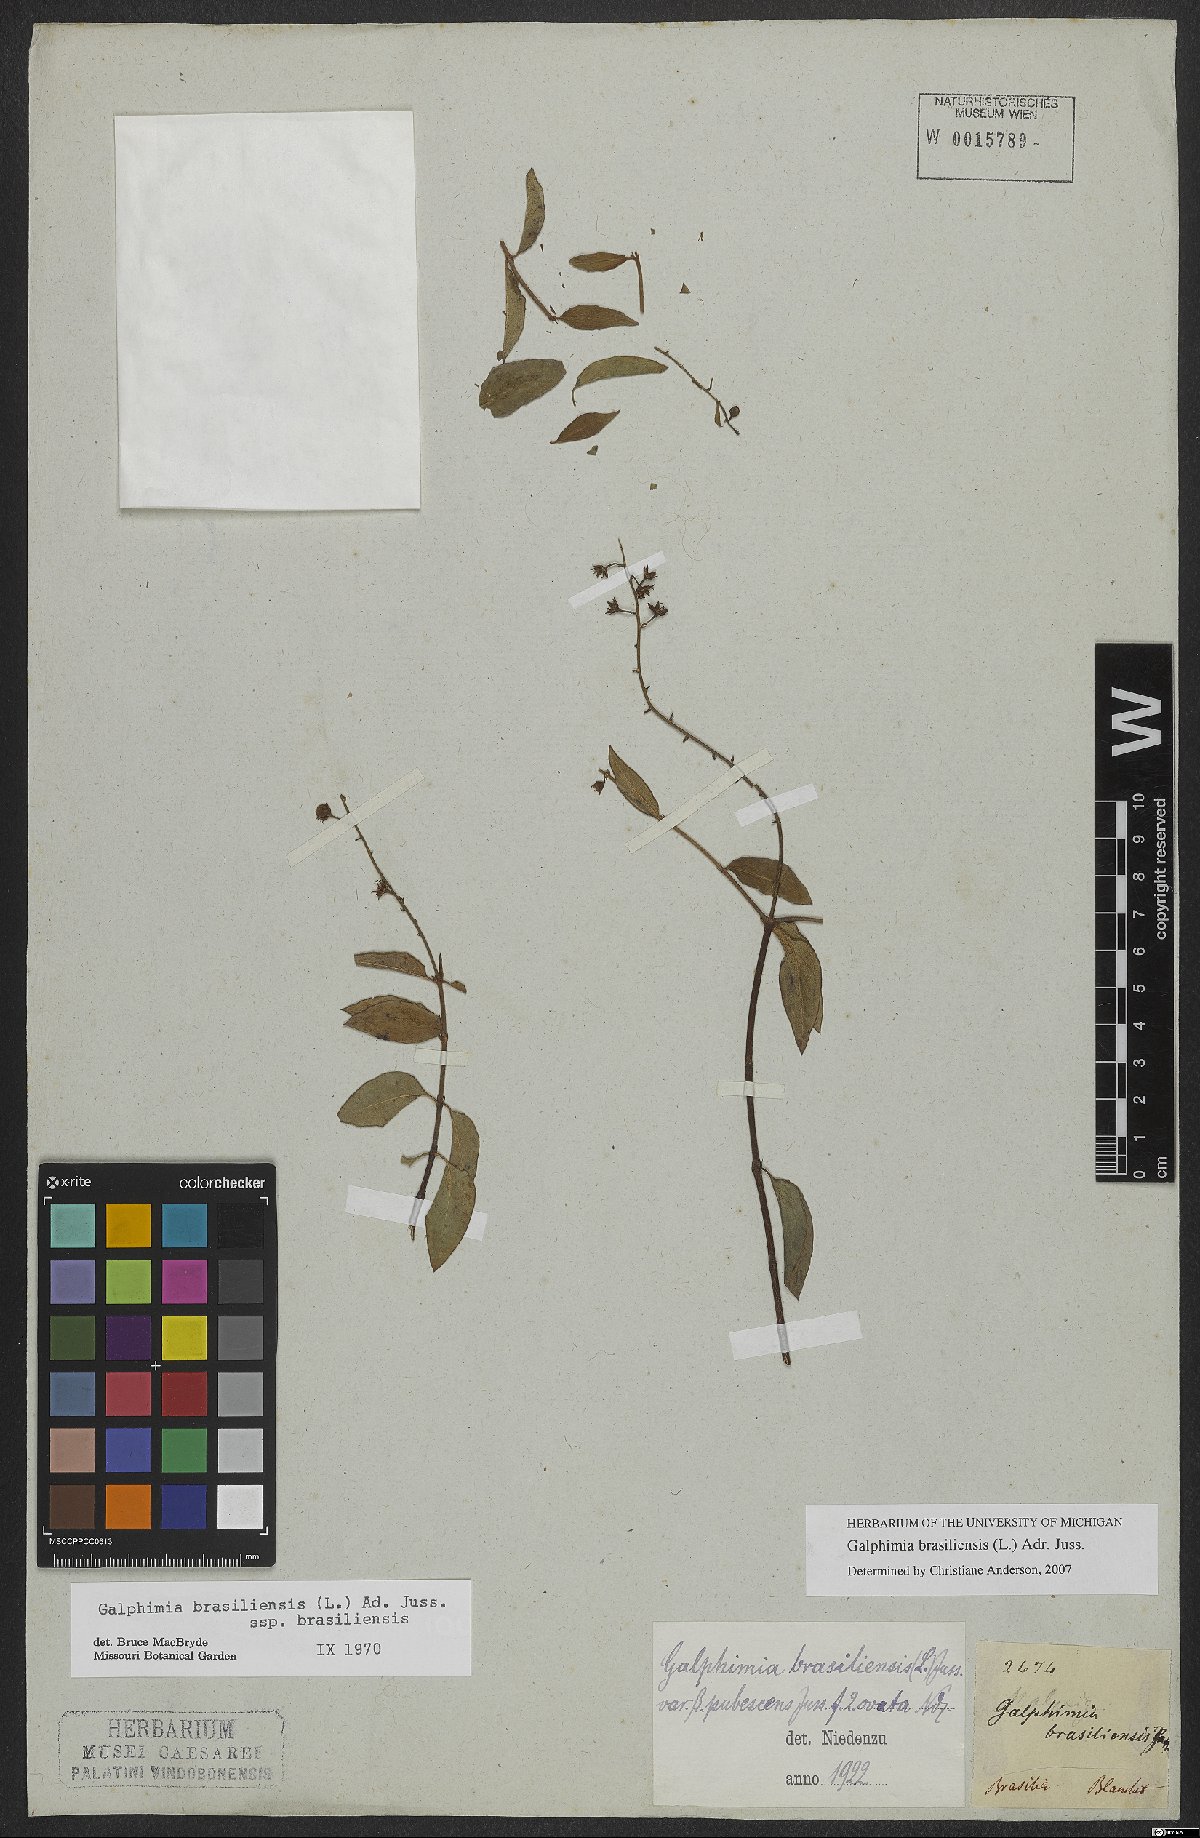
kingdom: Plantae
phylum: Tracheophyta
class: Magnoliopsida
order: Malpighiales
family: Malpighiaceae
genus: Galphimia
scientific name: Galphimia brasiliensis
